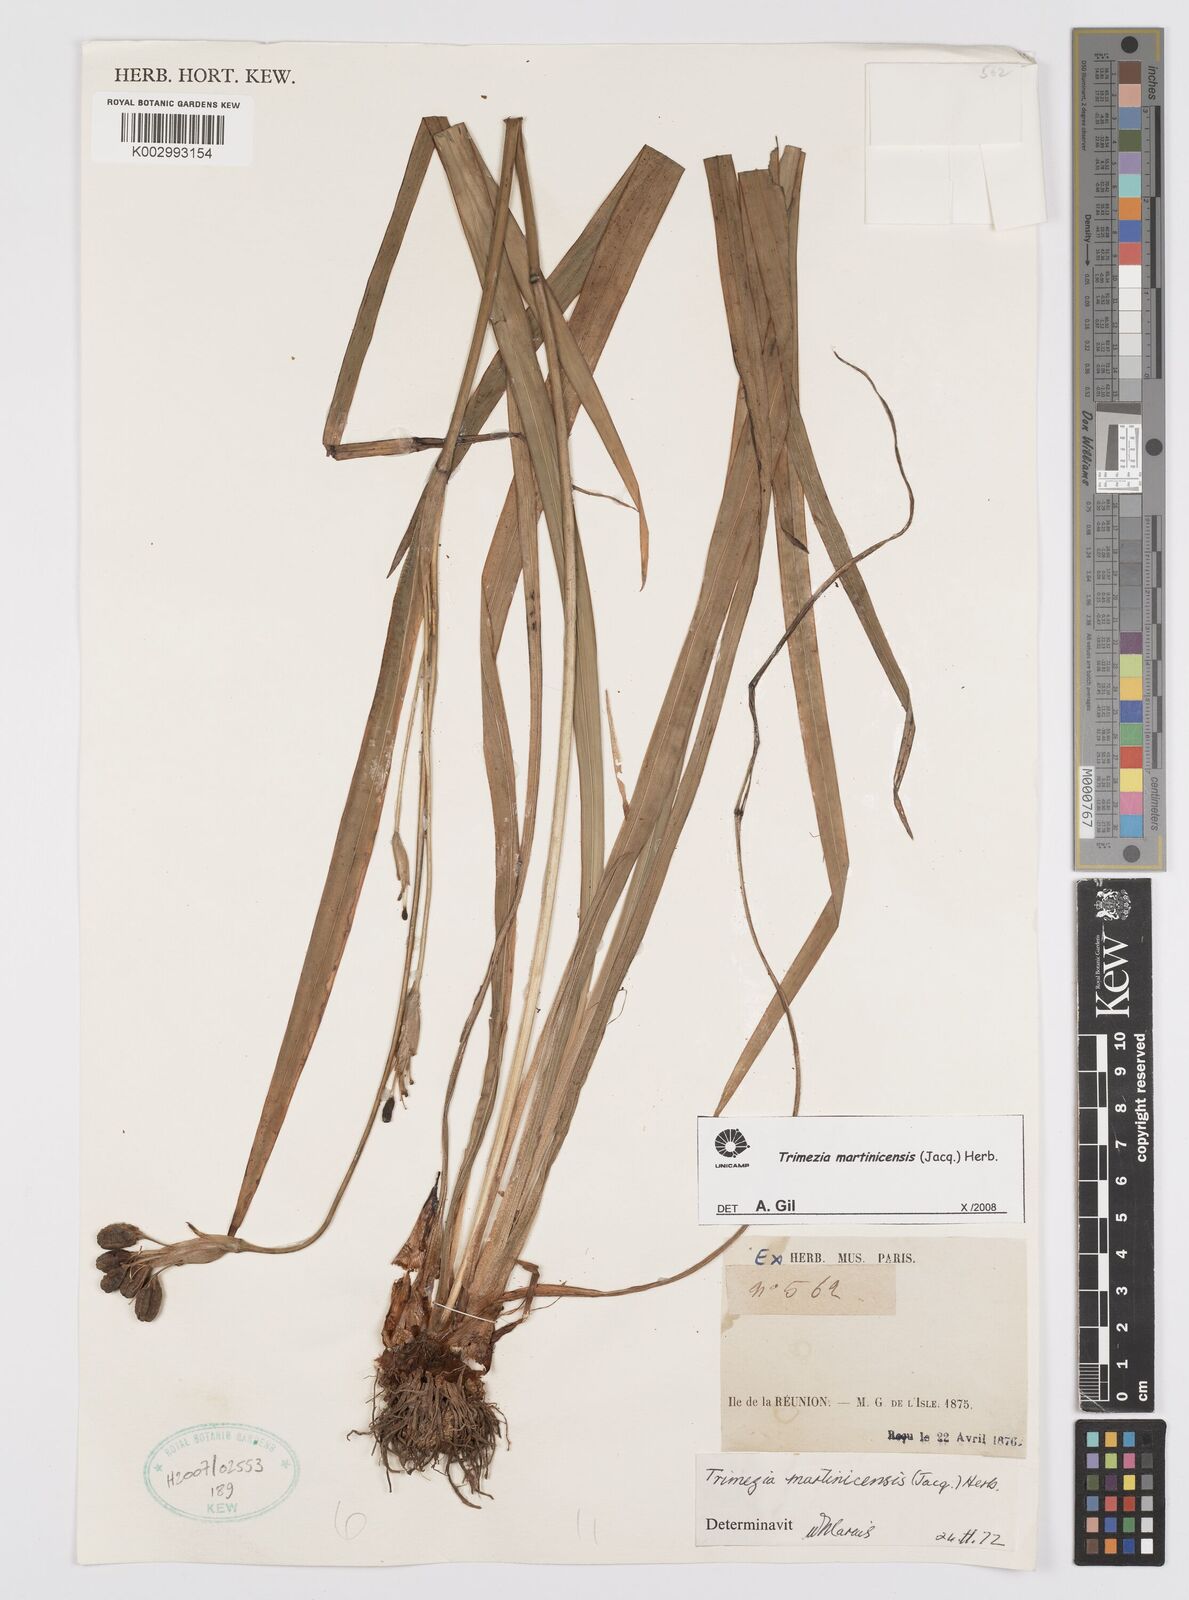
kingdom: Plantae
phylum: Tracheophyta
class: Liliopsida
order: Asparagales
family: Iridaceae
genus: Trimezia
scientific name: Trimezia martinicensis
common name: Martinique trimezia
